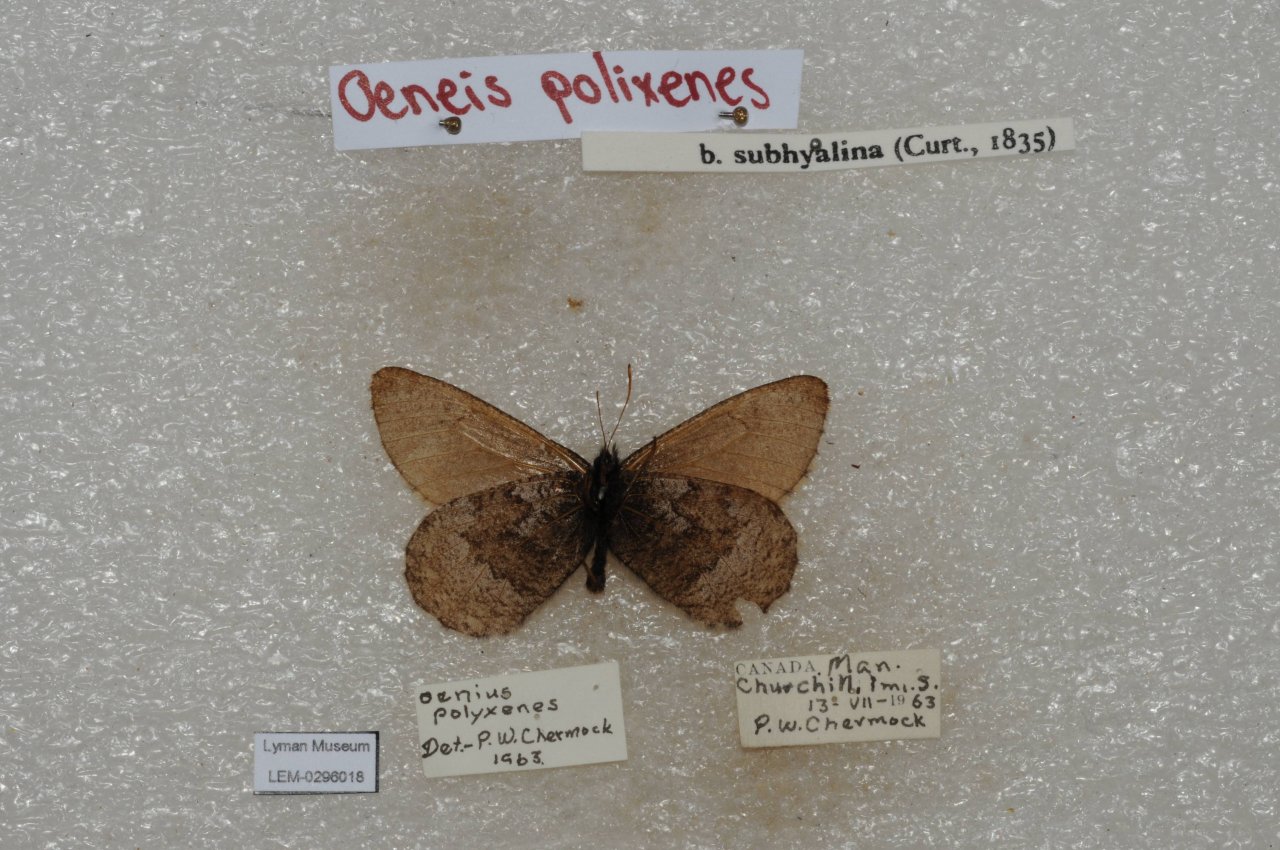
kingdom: Animalia
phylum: Arthropoda
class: Insecta
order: Lepidoptera
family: Nymphalidae
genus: Oeneis
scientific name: Oeneis bore
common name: Polixenes Arctic
